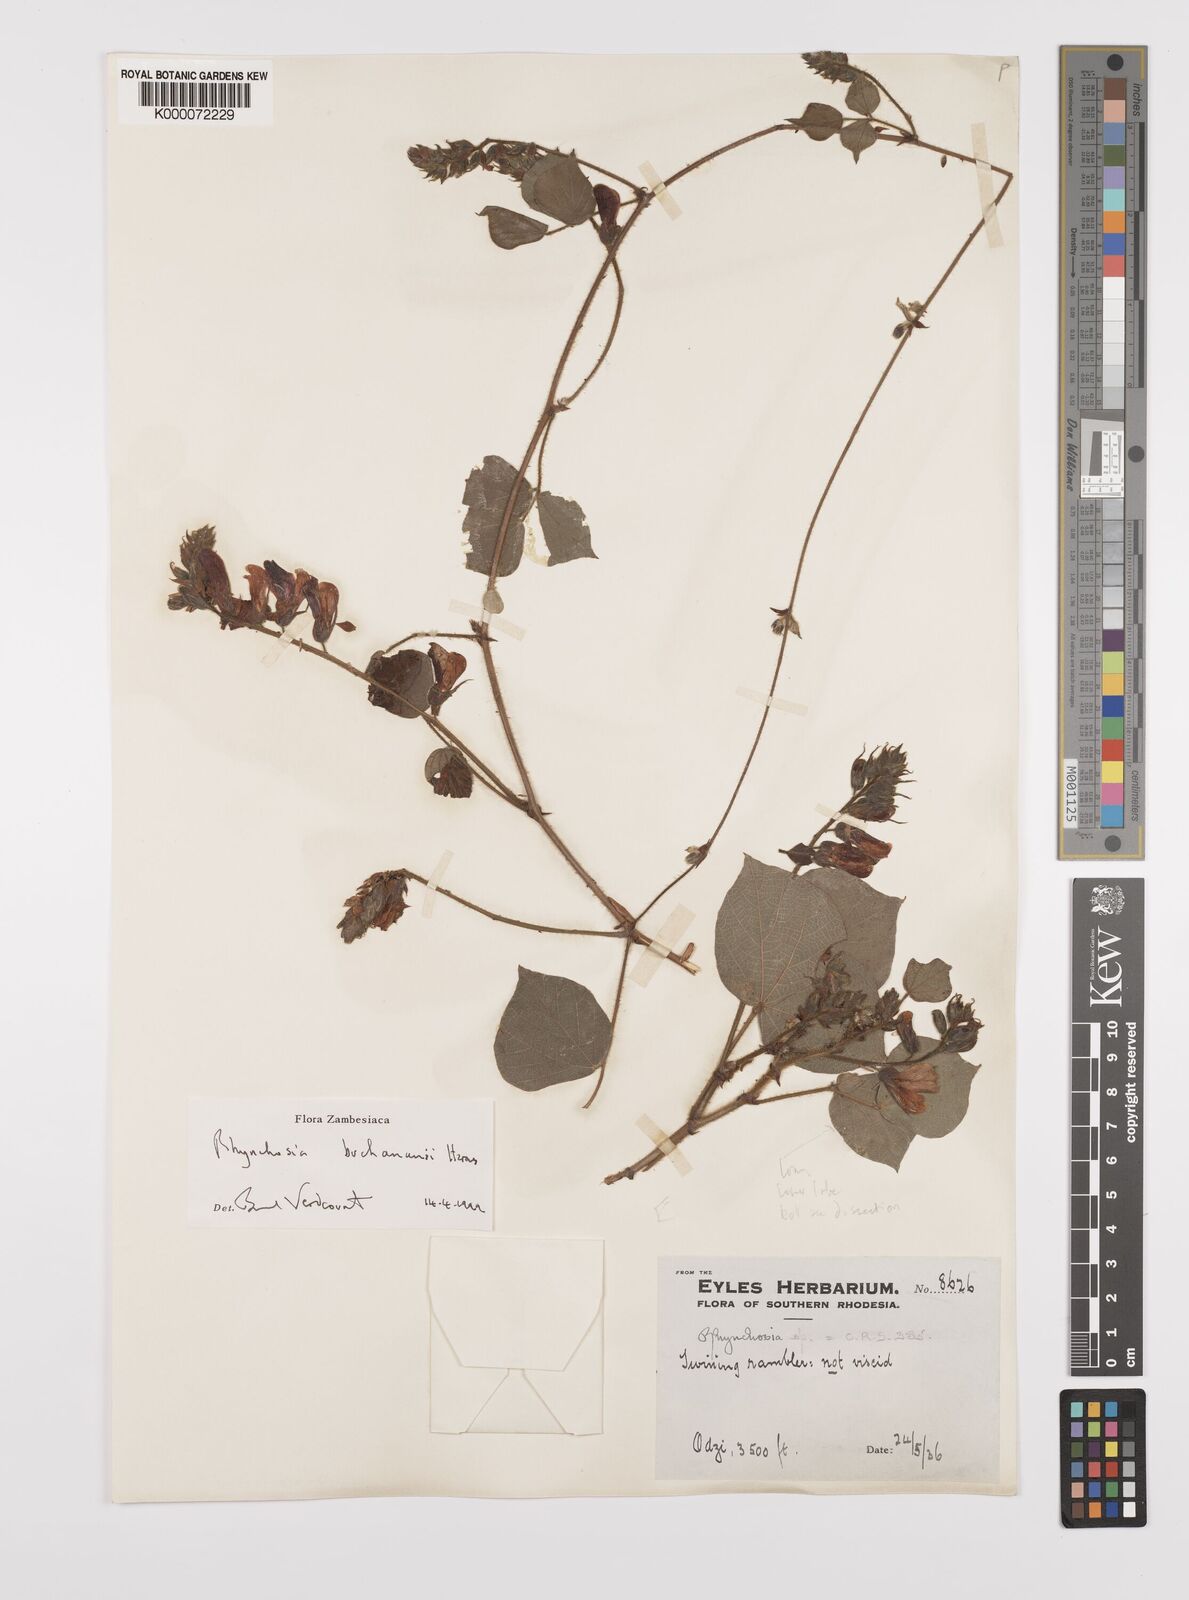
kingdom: Plantae
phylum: Tracheophyta
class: Magnoliopsida
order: Fabales
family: Fabaceae
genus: Rhynchosia
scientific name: Rhynchosia buchananii
